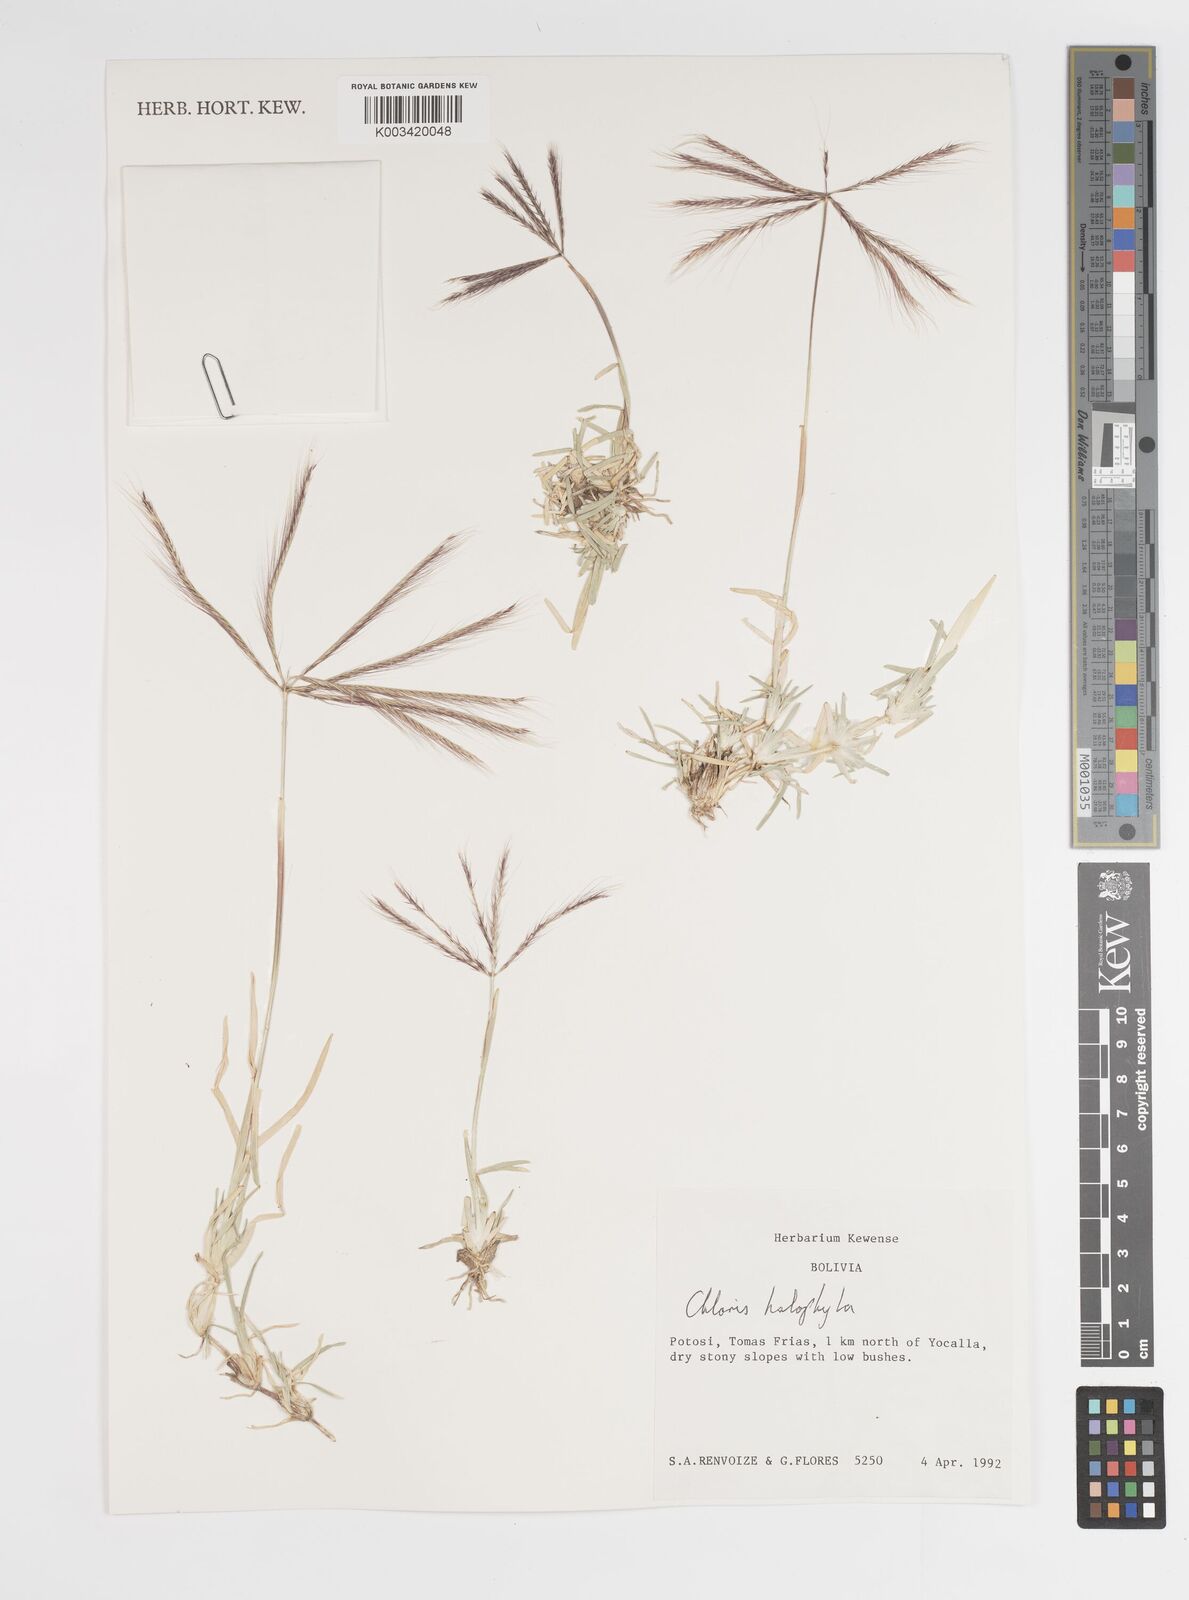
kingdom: Plantae
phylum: Tracheophyta
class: Liliopsida
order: Poales
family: Poaceae
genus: Chloris
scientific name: Chloris halophila
